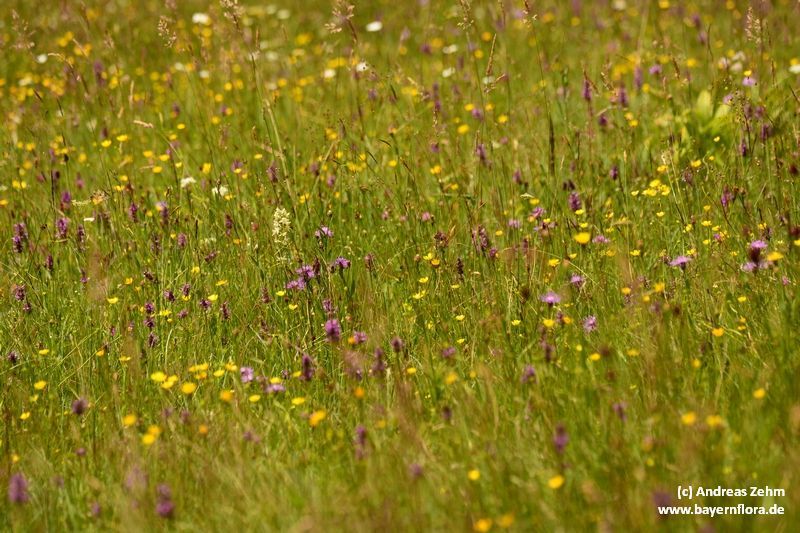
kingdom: Plantae
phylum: Tracheophyta
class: Liliopsida
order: Asparagales
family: Orchidaceae
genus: Platanthera
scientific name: Platanthera bifolia
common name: Lesser butterfly-orchid
